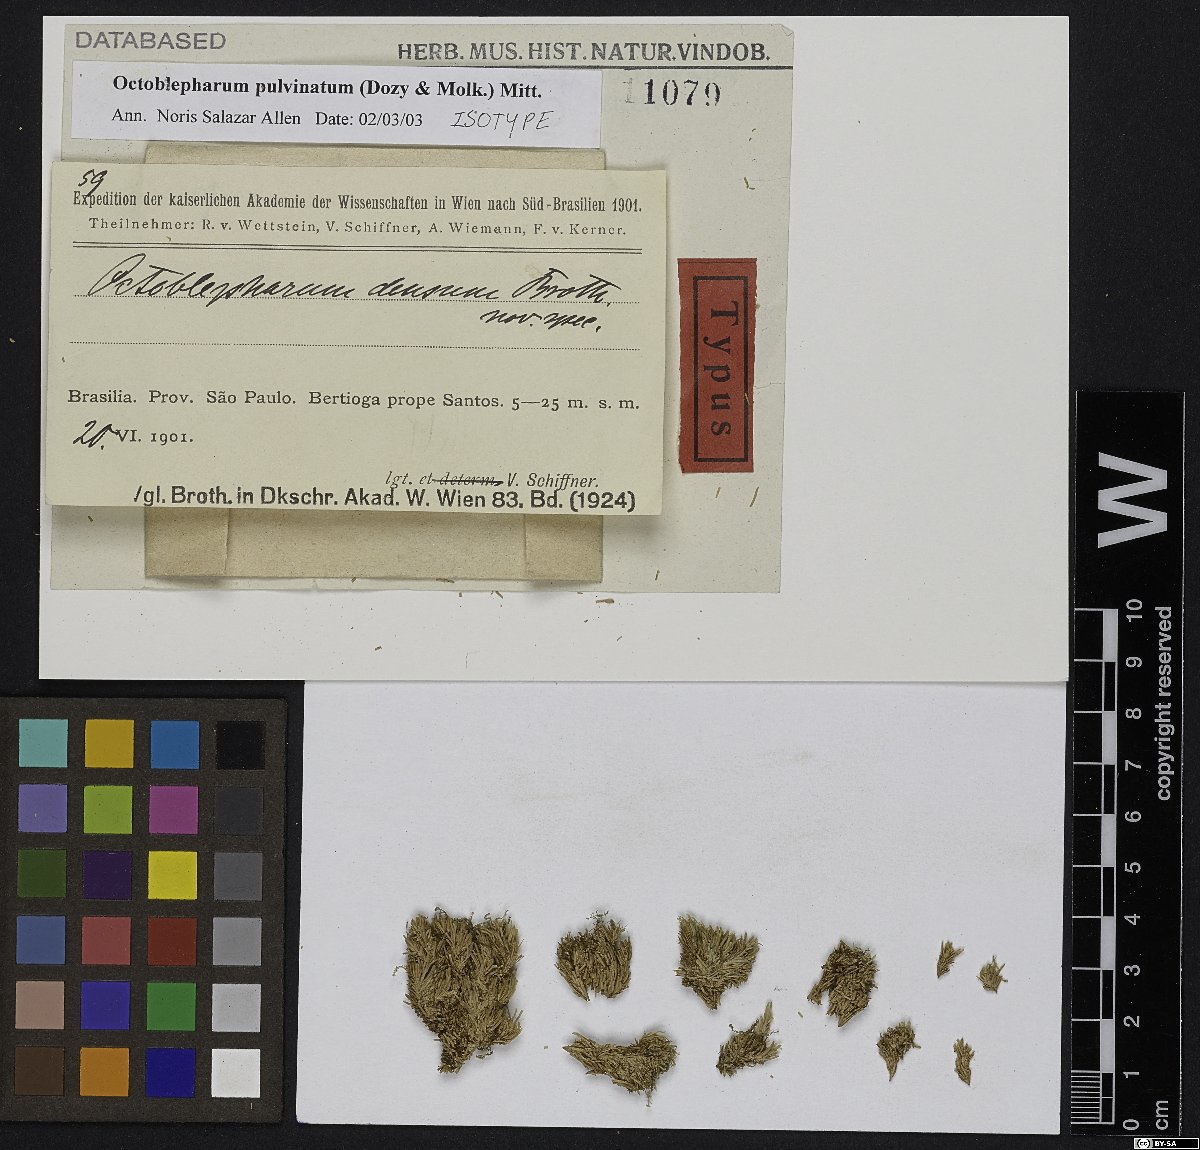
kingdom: Plantae
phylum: Bryophyta
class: Bryopsida
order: Dicranales
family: Octoblepharaceae
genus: Octoblepharum
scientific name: Octoblepharum pulvinatum
